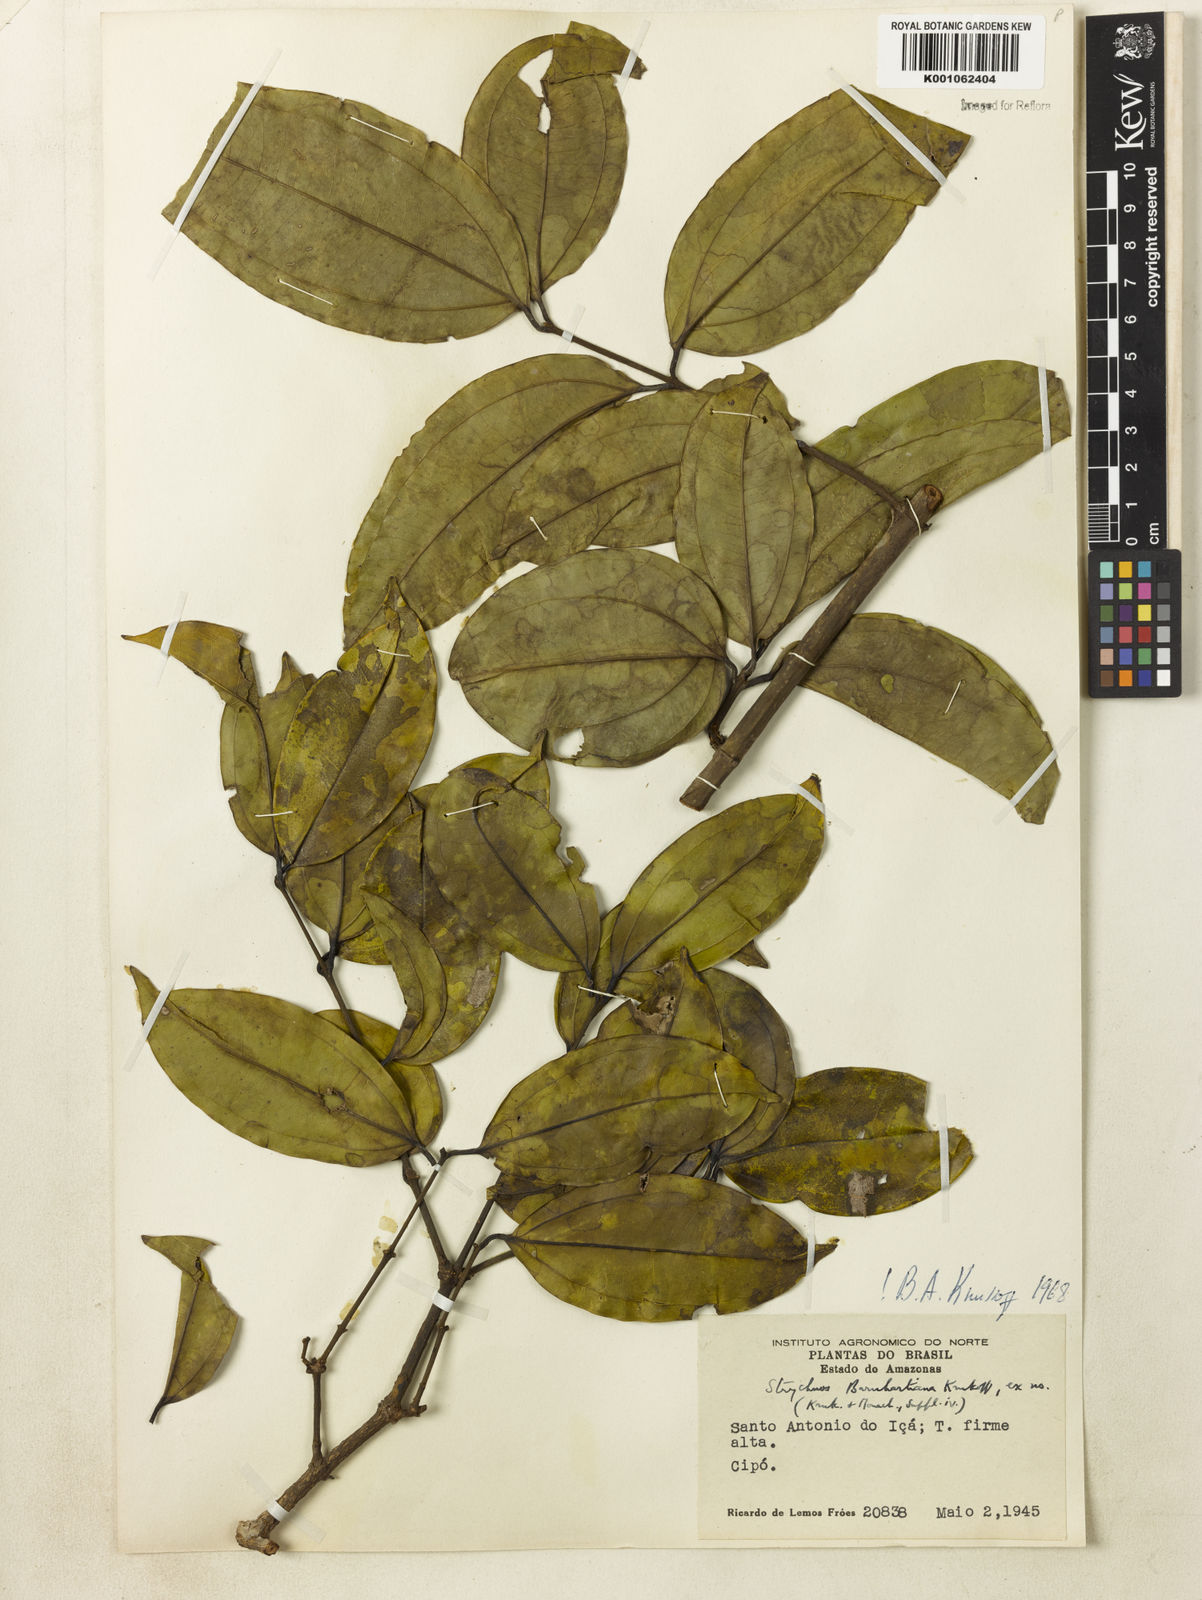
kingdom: Plantae
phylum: Tracheophyta
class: Magnoliopsida
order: Gentianales
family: Loganiaceae
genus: Strychnos
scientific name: Strychnos barnhartiana
